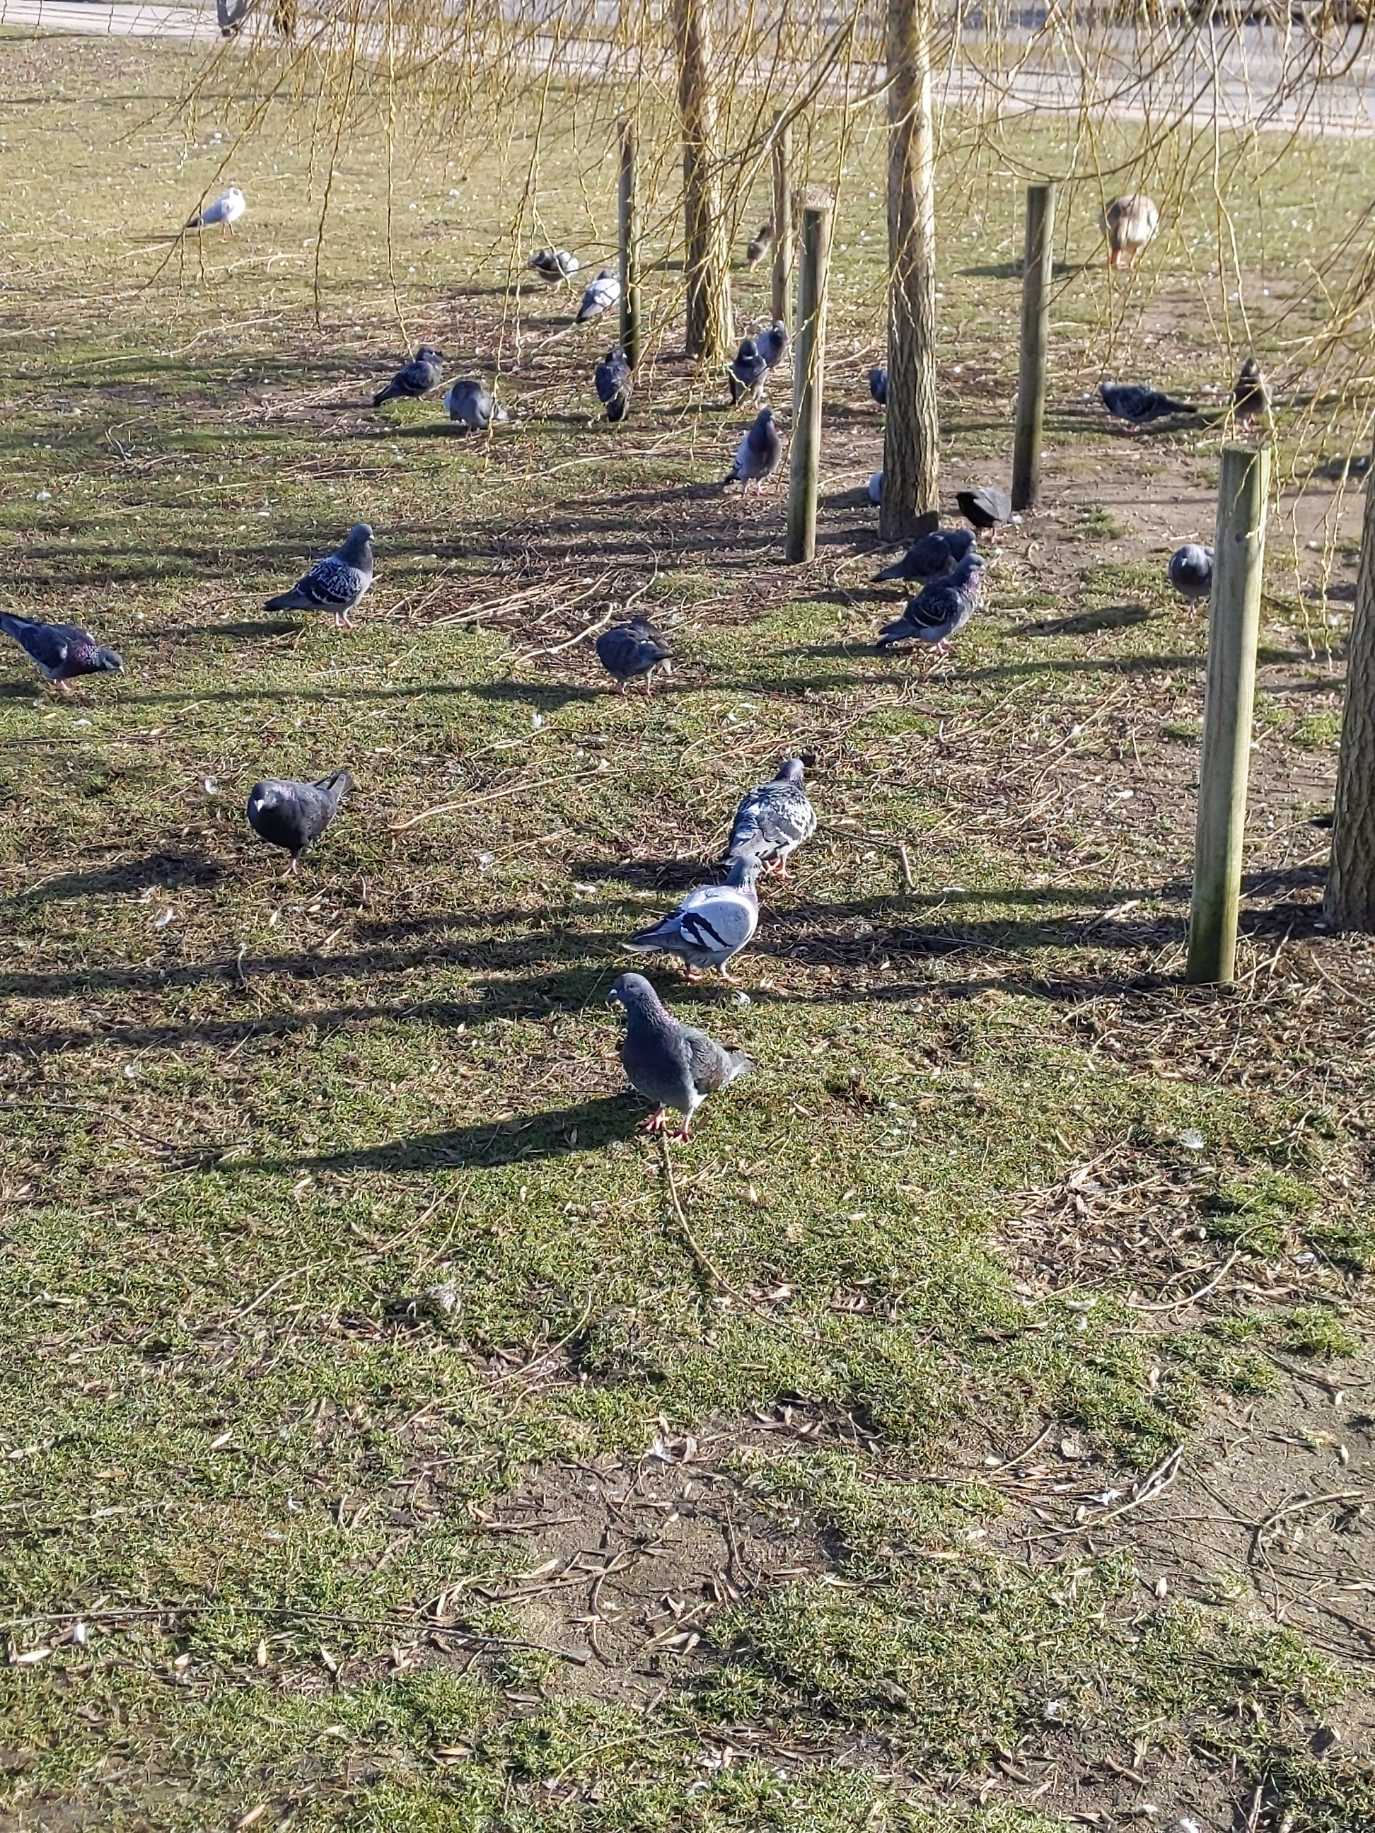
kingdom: Animalia
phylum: Chordata
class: Aves
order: Columbiformes
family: Columbidae
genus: Columba
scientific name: Columba livia
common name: Tamdue
